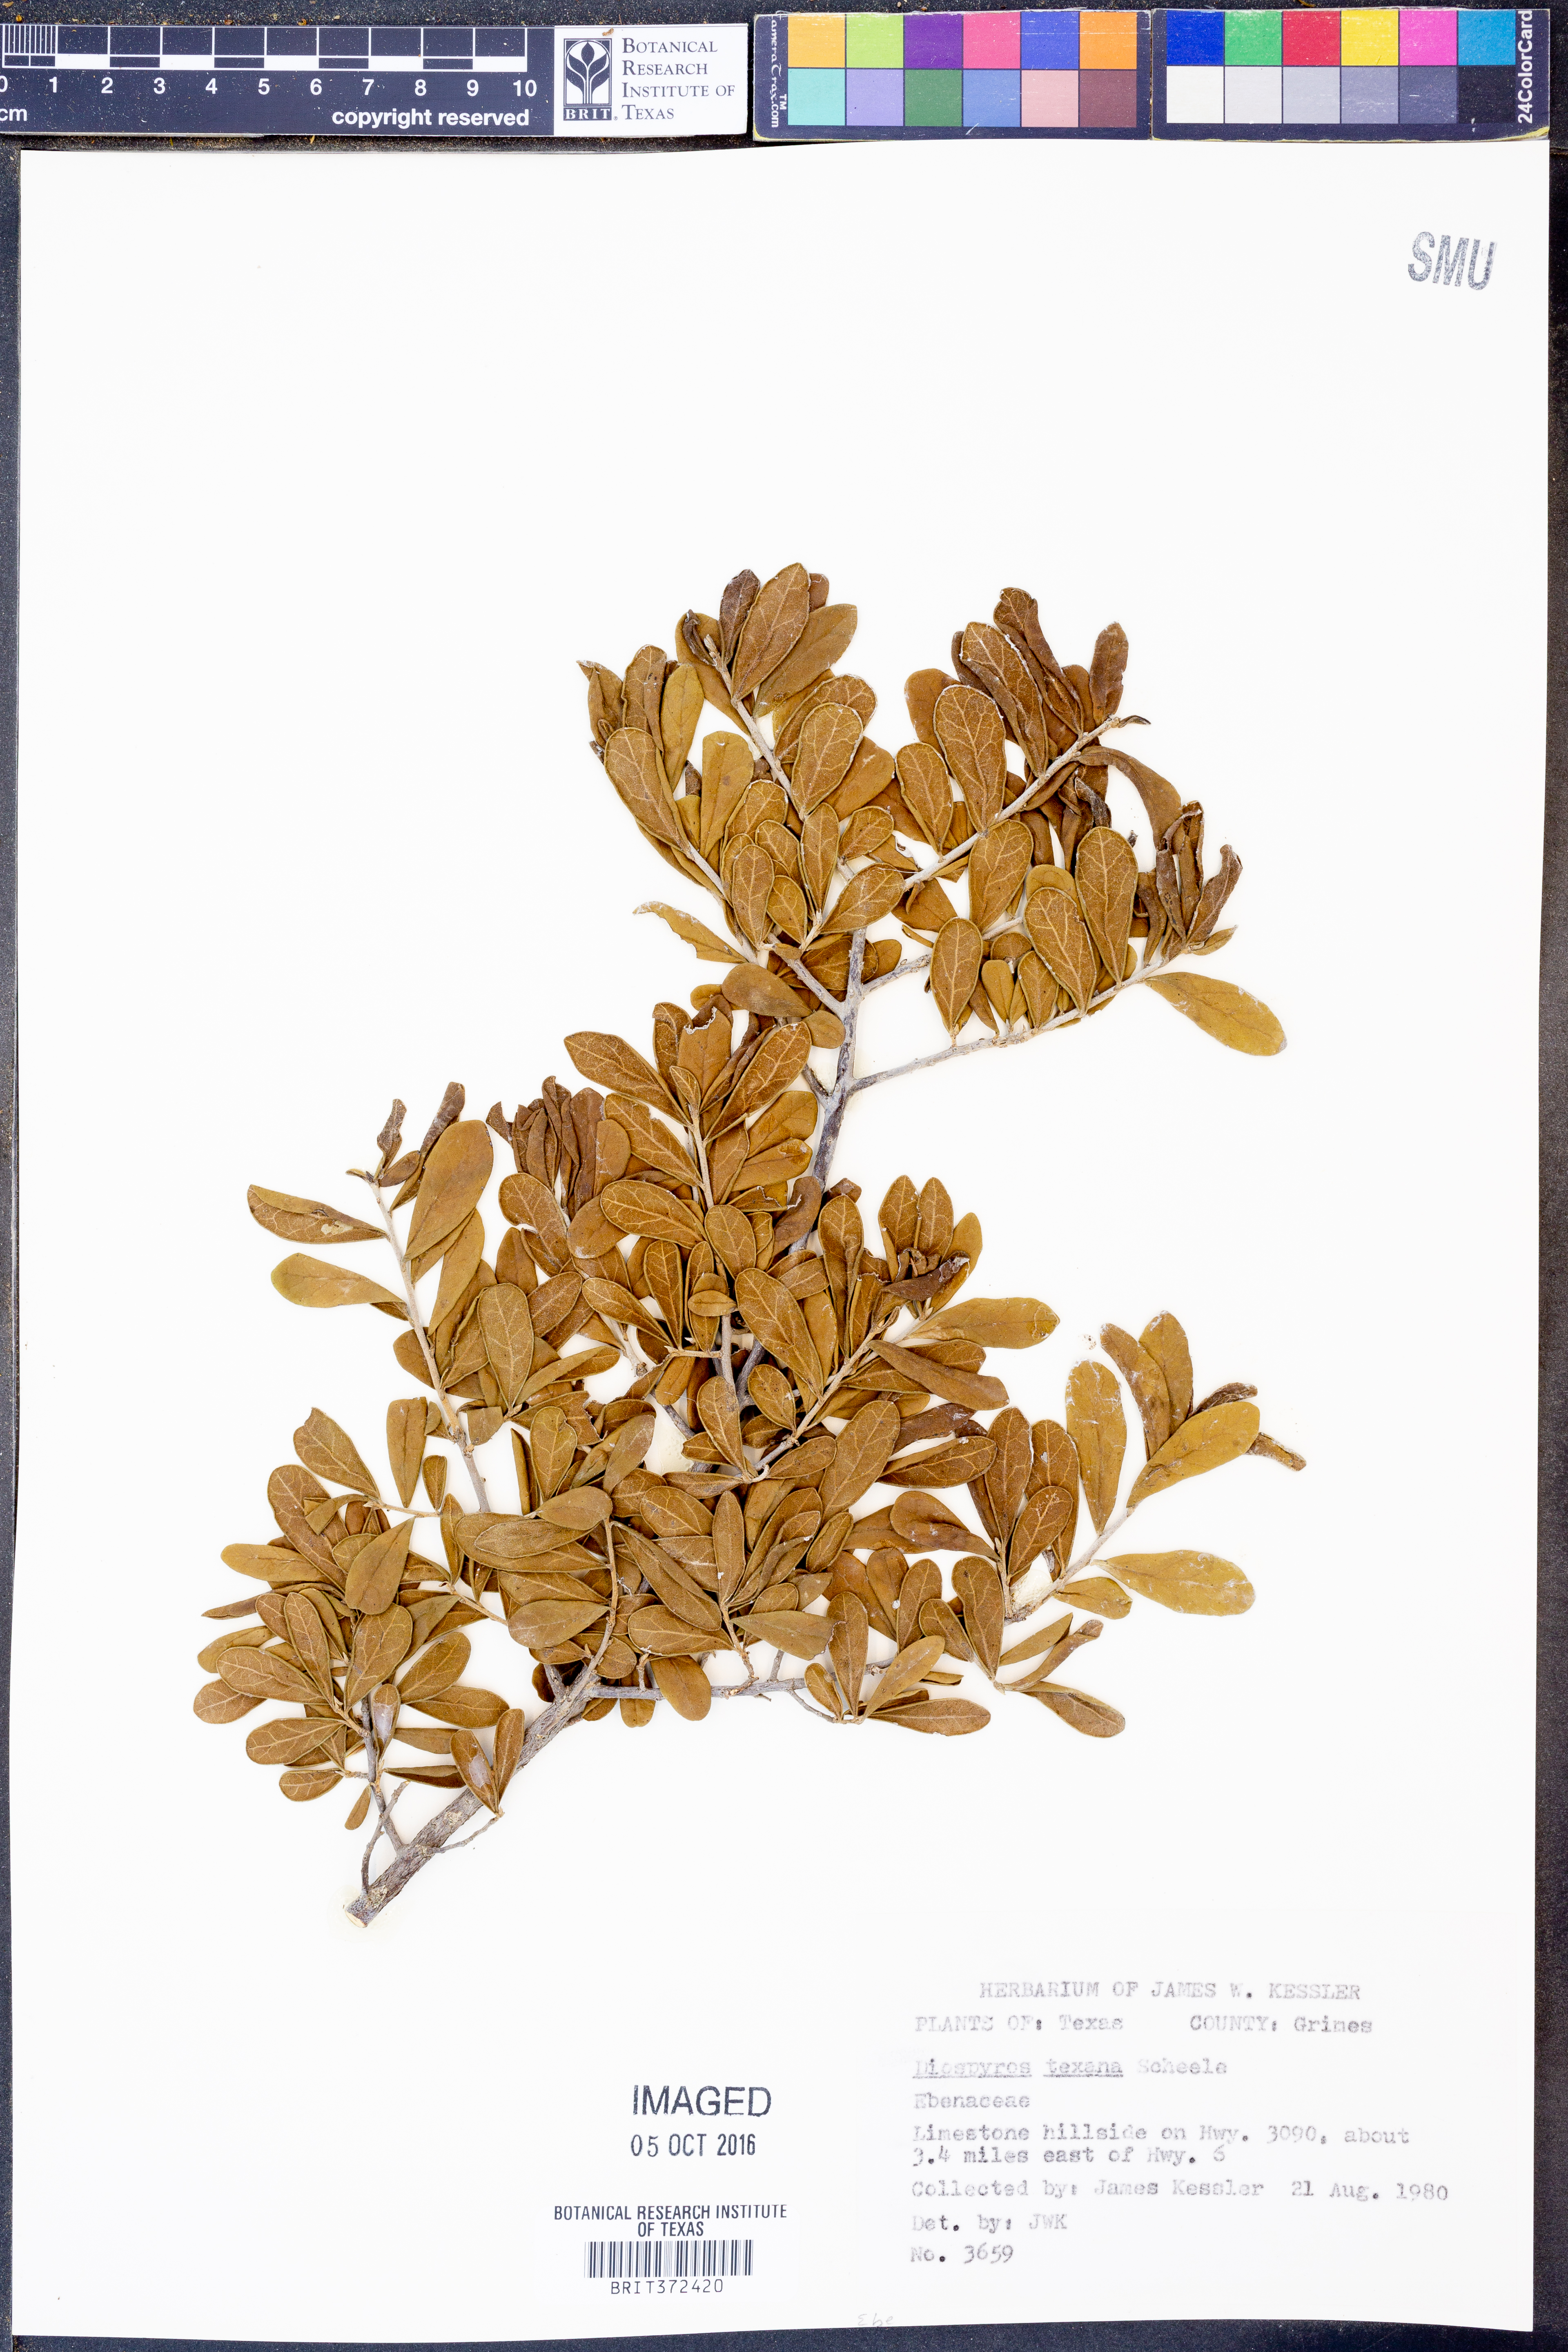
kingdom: Plantae
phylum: Tracheophyta
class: Magnoliopsida
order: Ericales
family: Ebenaceae
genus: Diospyros
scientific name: Diospyros texana
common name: Texas persimmon
